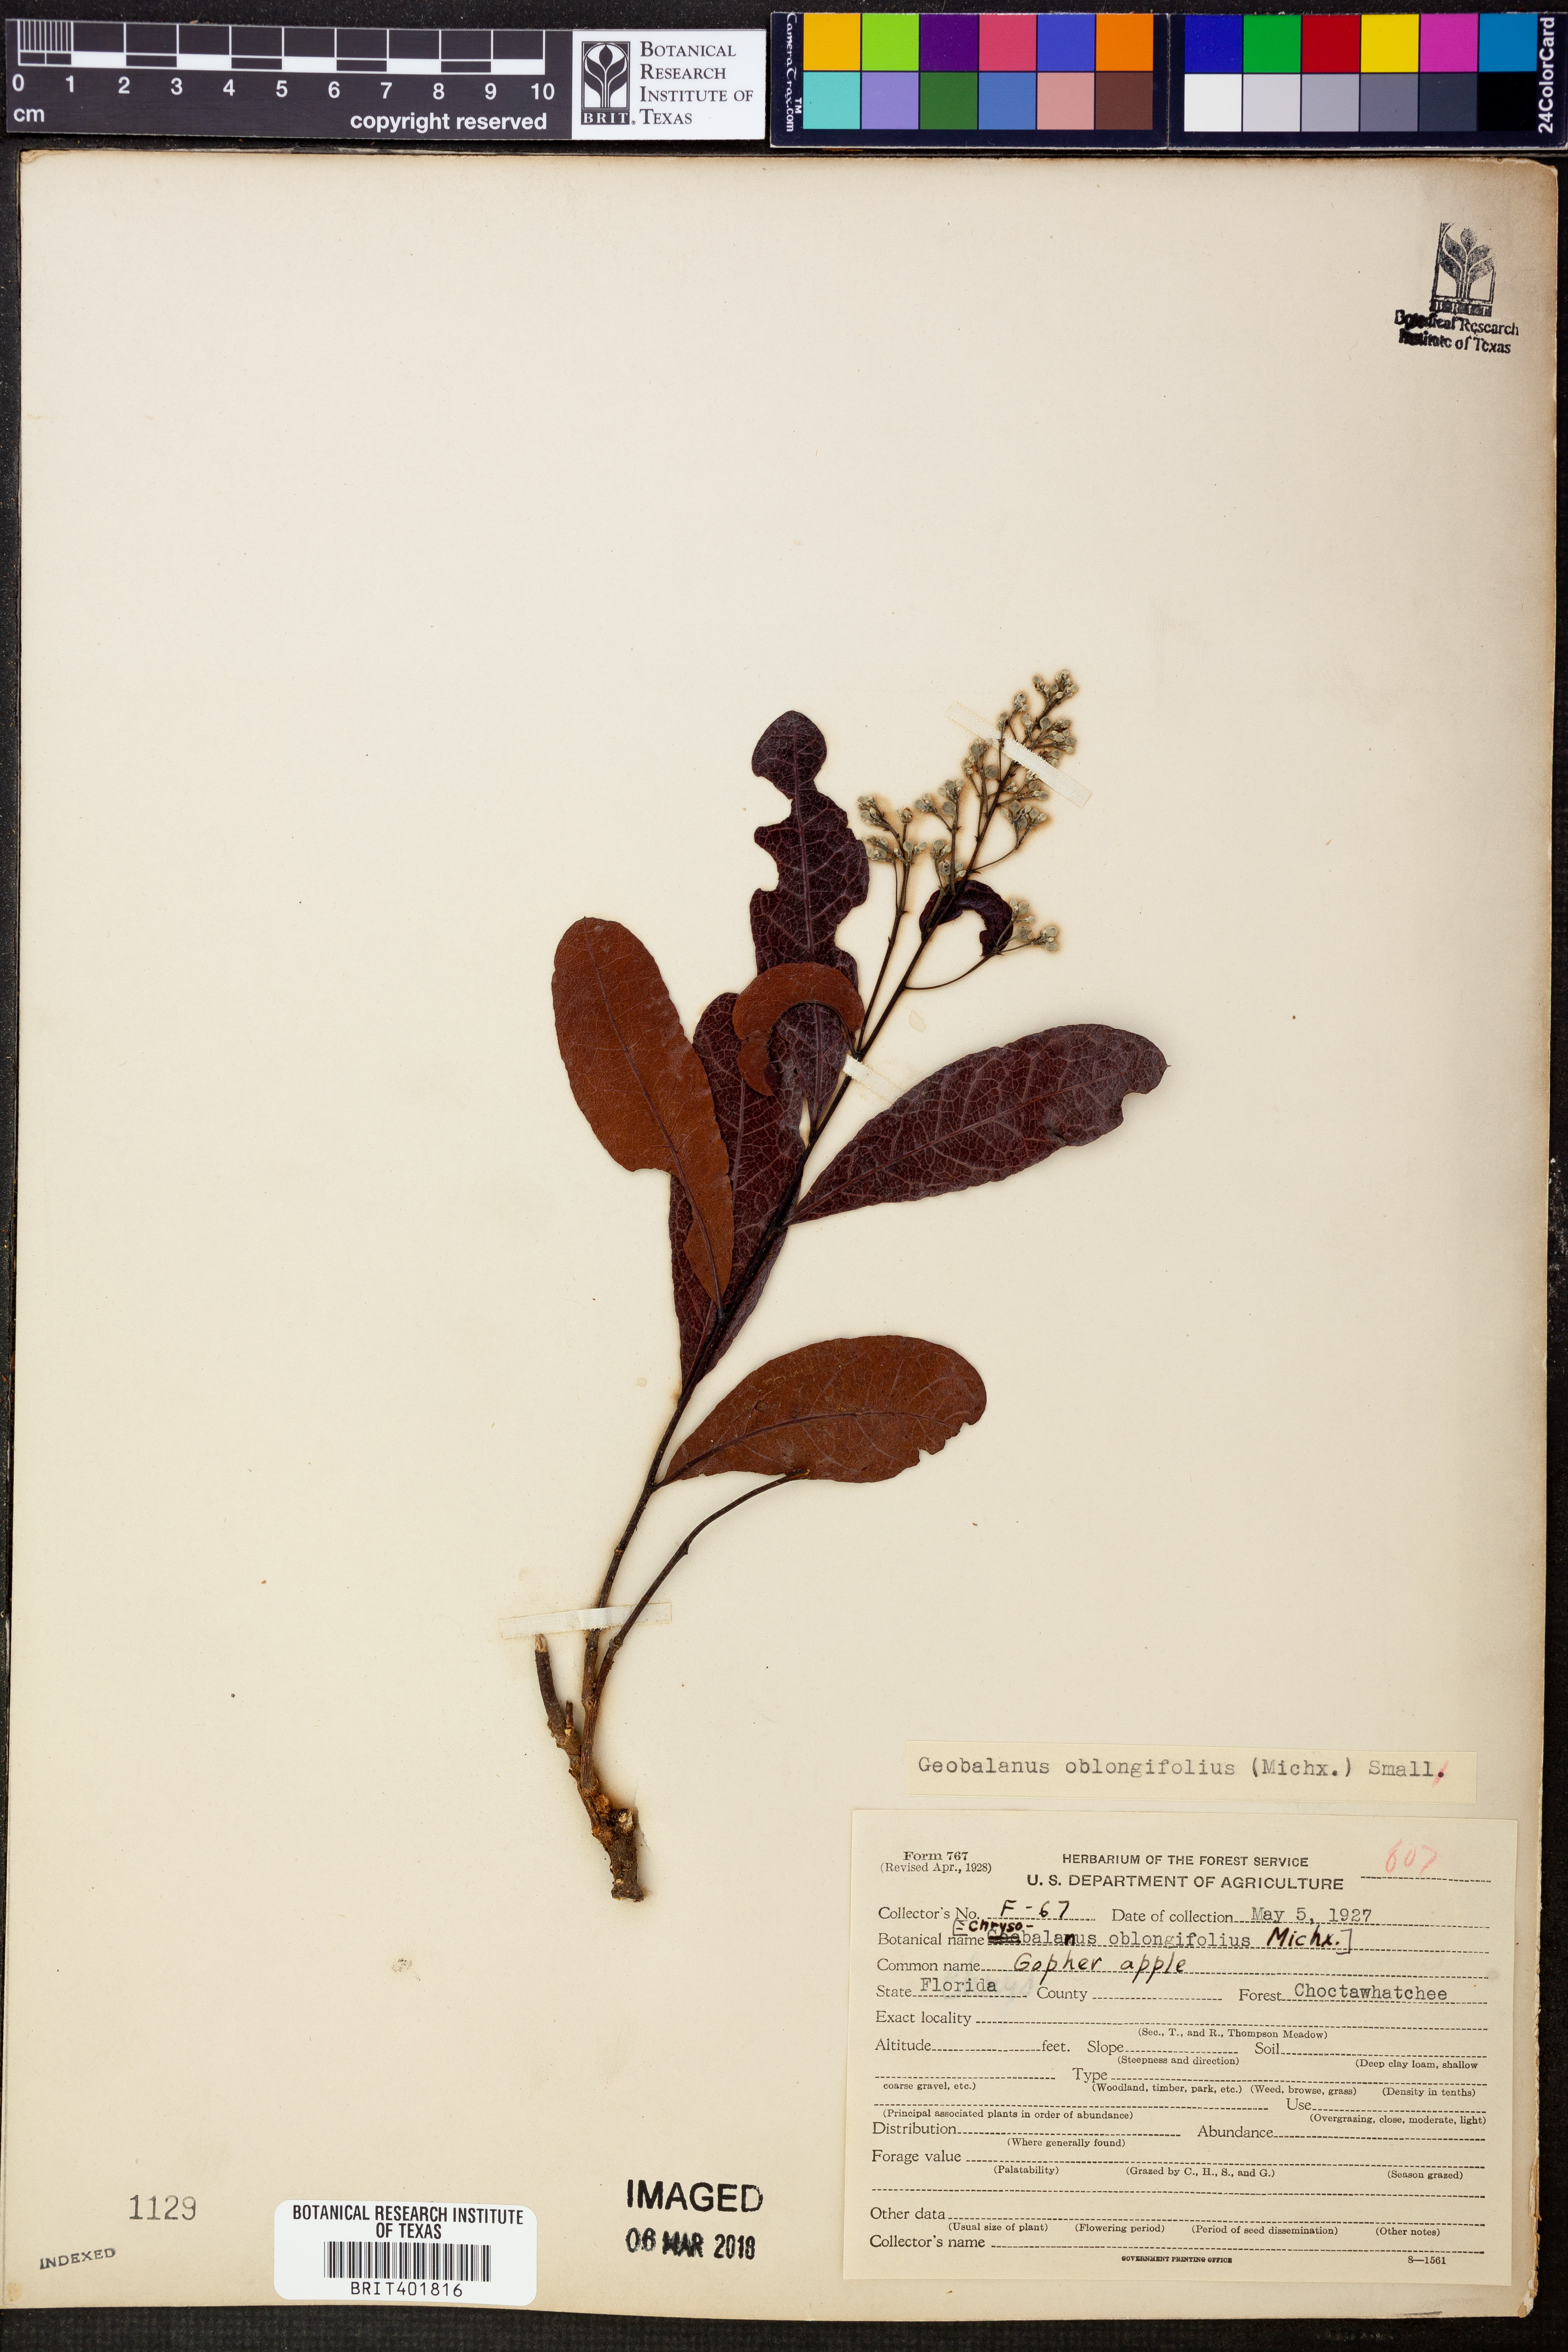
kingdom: Plantae
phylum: Tracheophyta
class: Magnoliopsida
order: Malpighiales
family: Chrysobalanaceae
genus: Geobalanus
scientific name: Geobalanus oblongifolius
